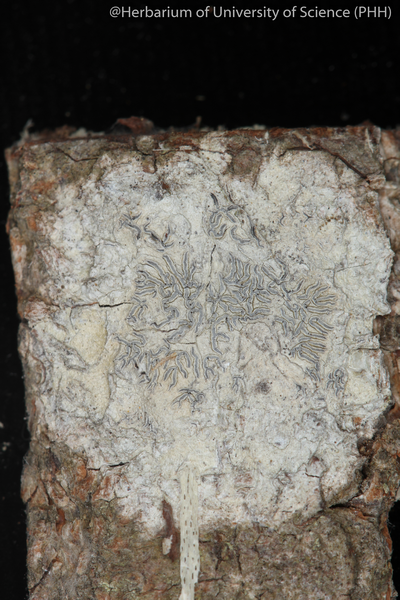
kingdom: Fungi
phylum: Ascomycota
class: Lecanoromycetes
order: Ostropales
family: Graphidaceae
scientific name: Graphidaceae
